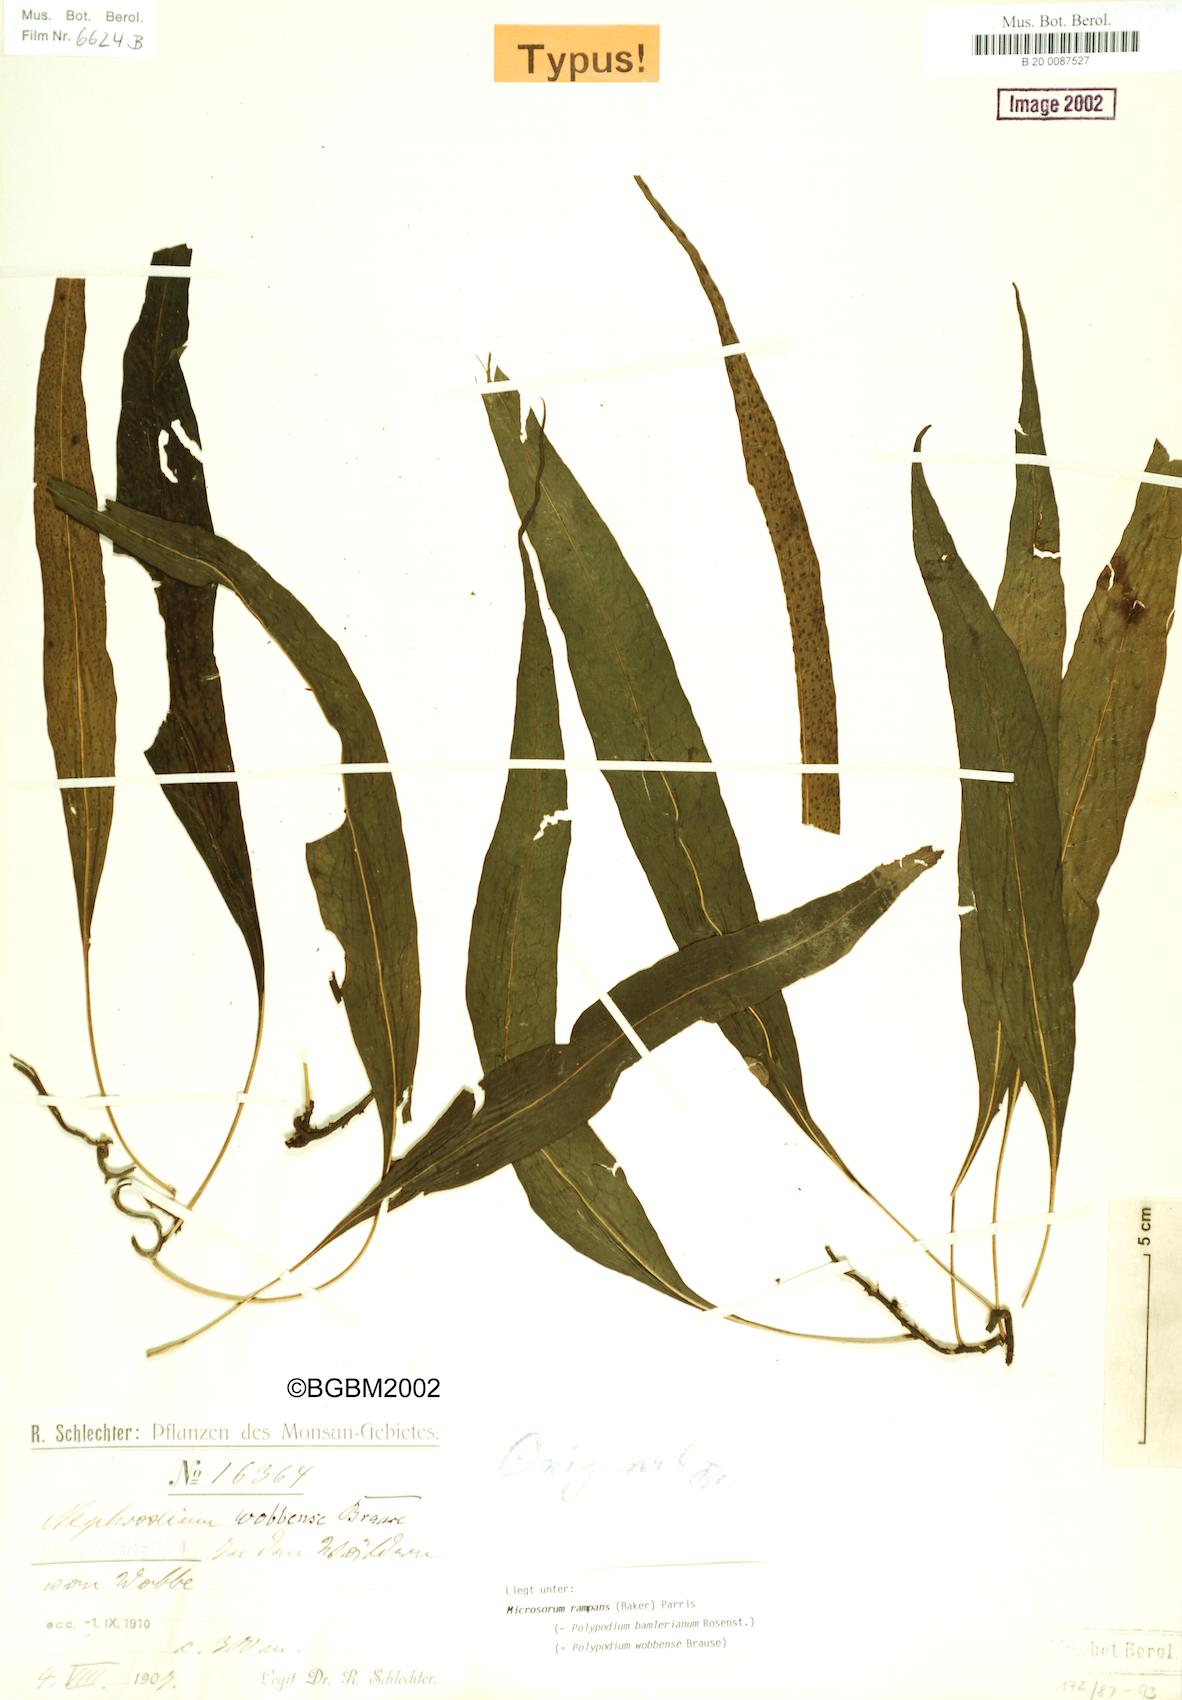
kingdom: Plantae
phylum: Tracheophyta
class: Polypodiopsida
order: Polypodiales
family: Polypodiaceae
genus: Microsorum
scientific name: Microsorum rampans
